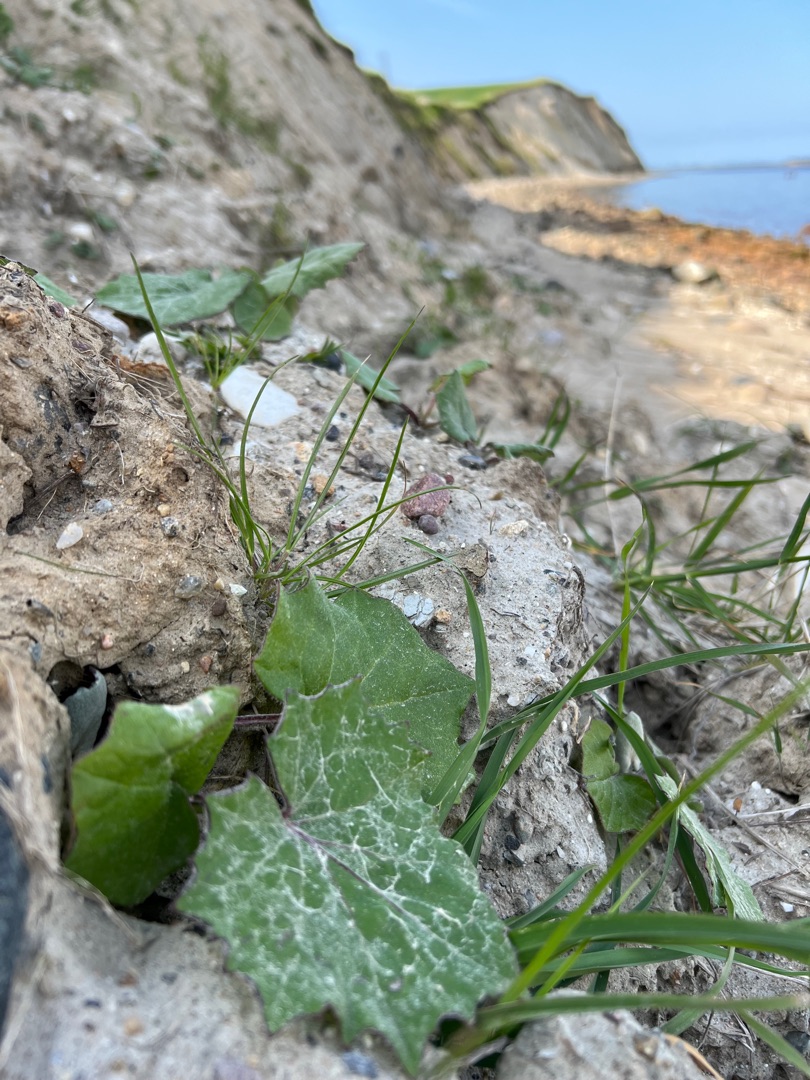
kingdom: Plantae
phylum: Tracheophyta
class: Magnoliopsida
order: Asterales
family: Asteraceae
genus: Tussilago
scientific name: Tussilago farfara
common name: Følfod
